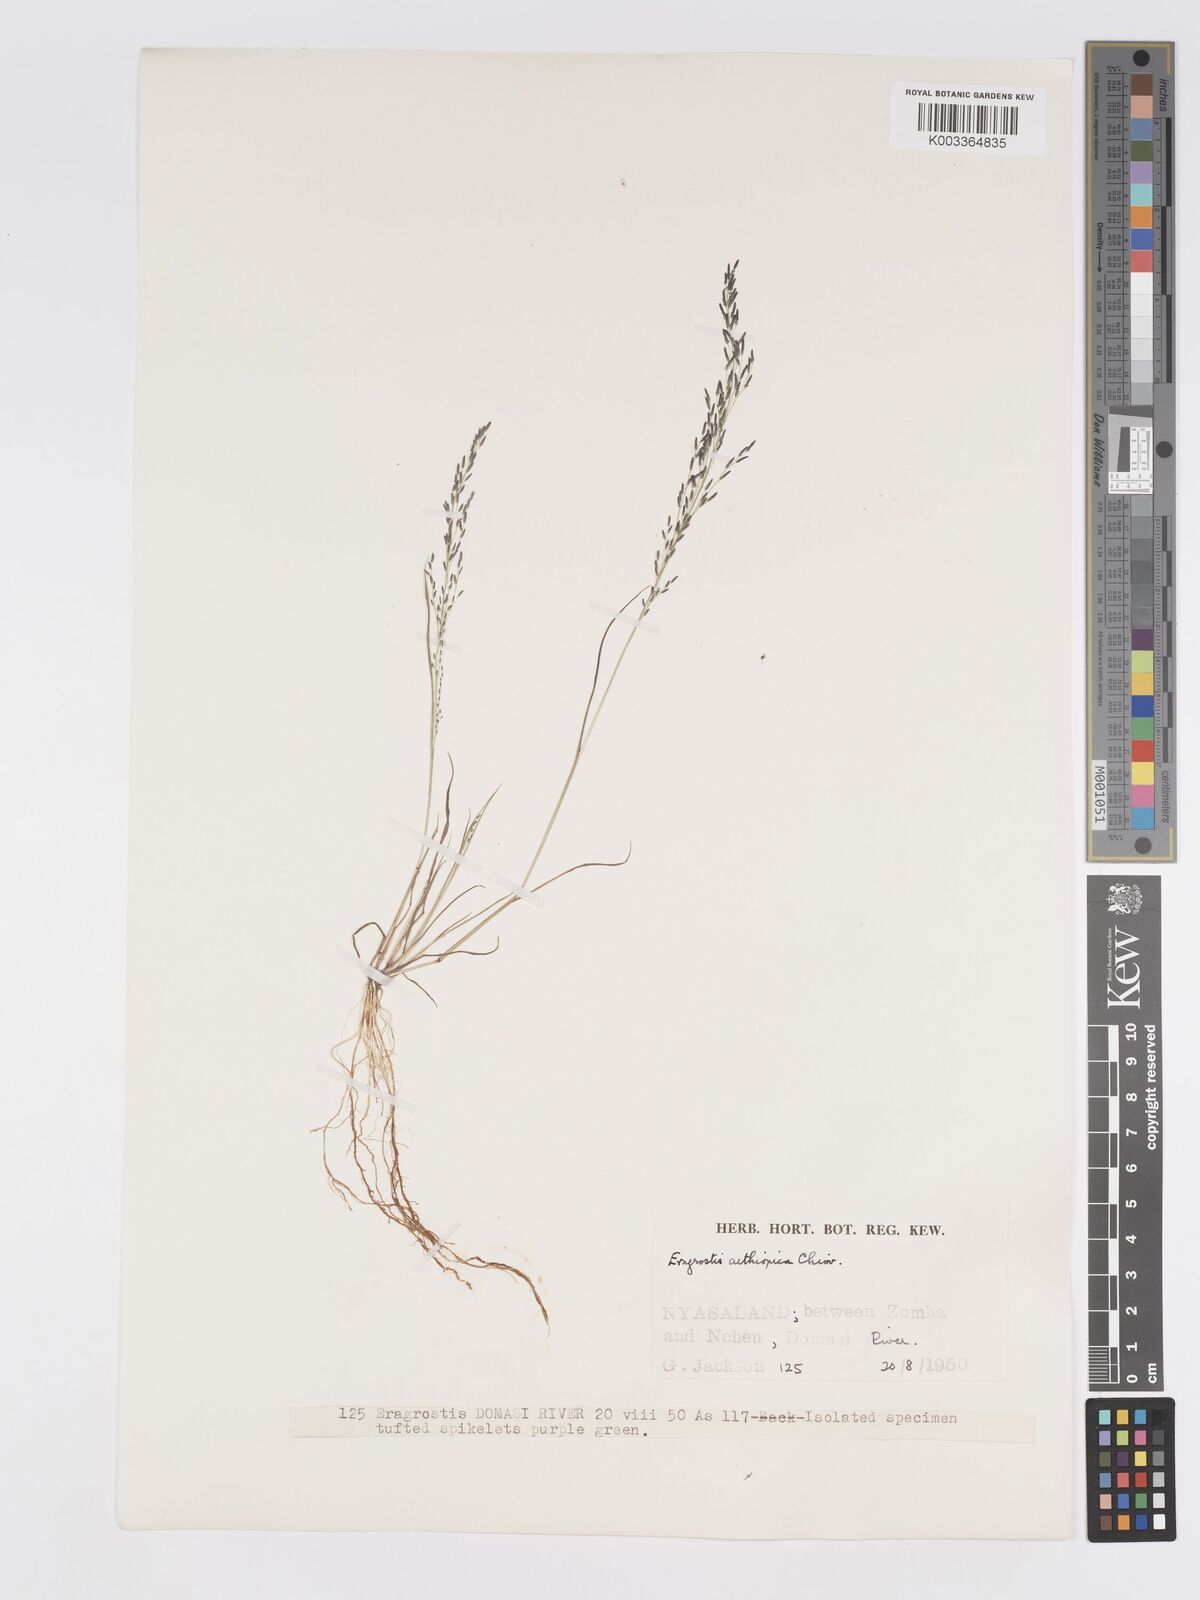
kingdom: Plantae
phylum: Tracheophyta
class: Liliopsida
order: Poales
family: Poaceae
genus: Eragrostis
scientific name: Eragrostis aethiopica
